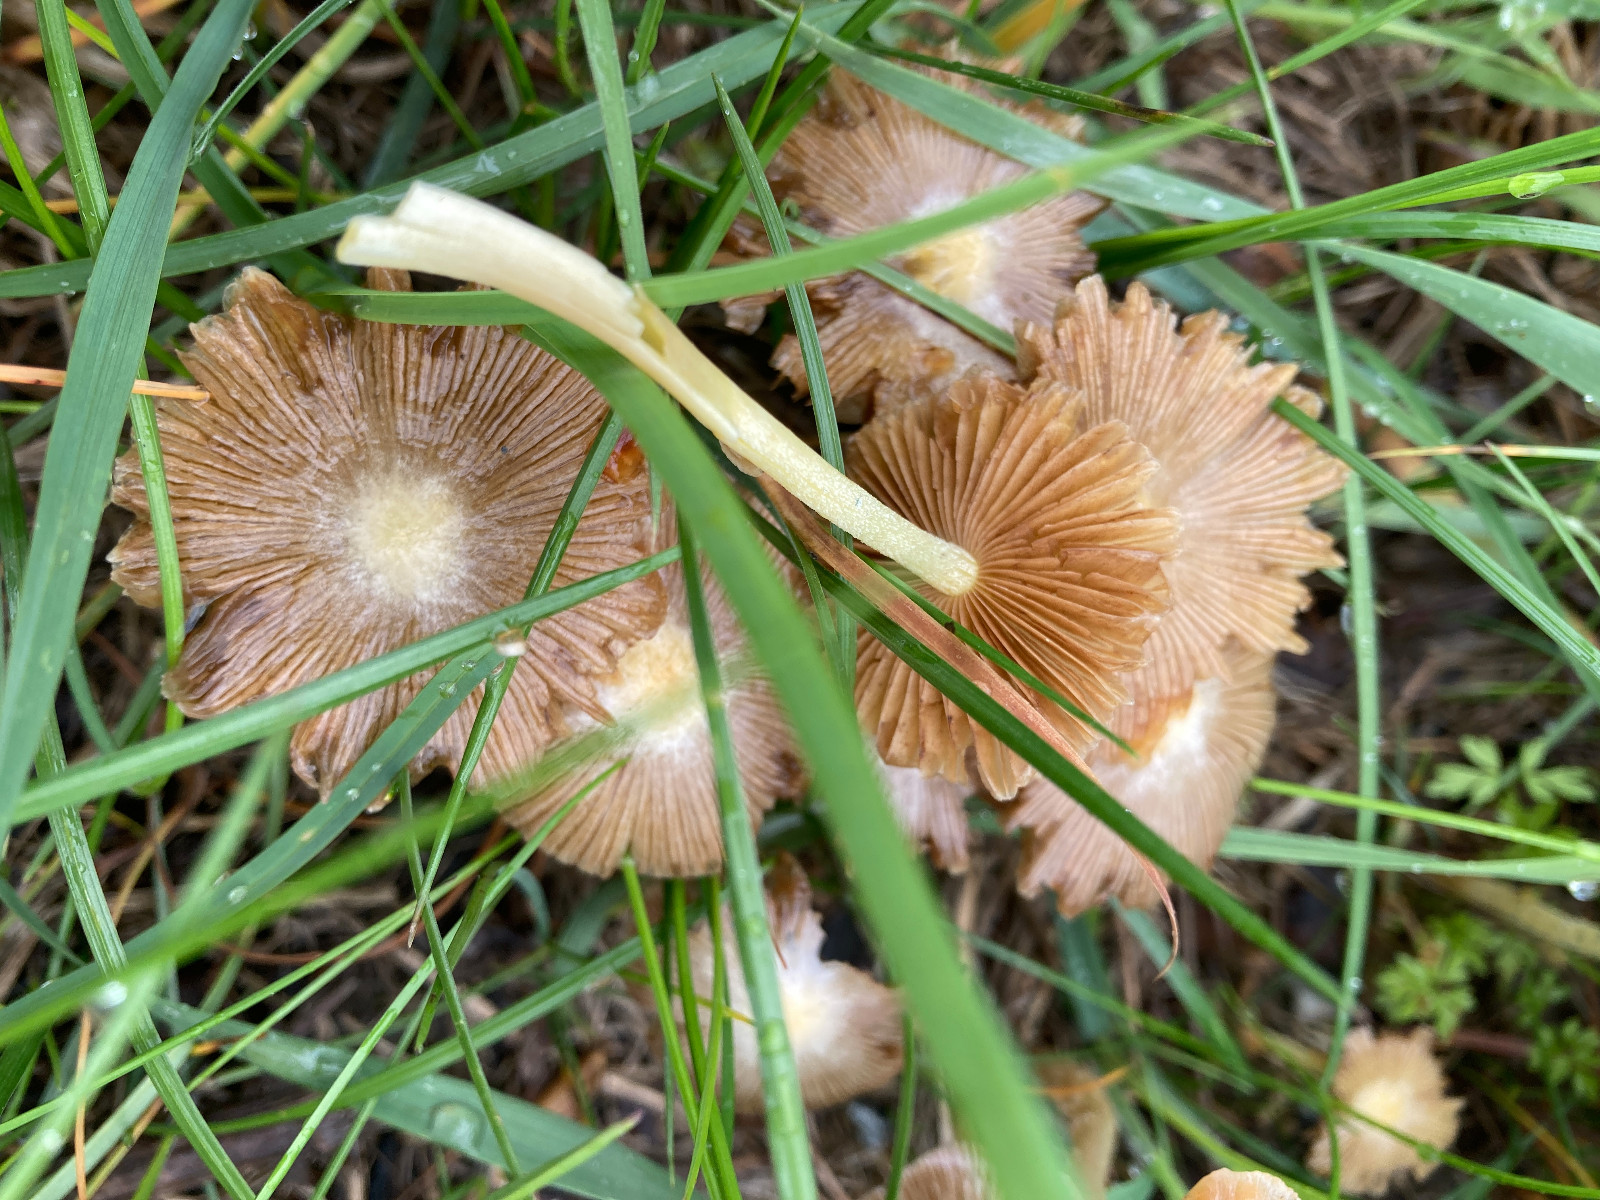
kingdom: Fungi
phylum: Basidiomycota
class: Agaricomycetes
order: Agaricales
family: Bolbitiaceae
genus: Bolbitius
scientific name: Bolbitius titubans
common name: almindelig gulhat
